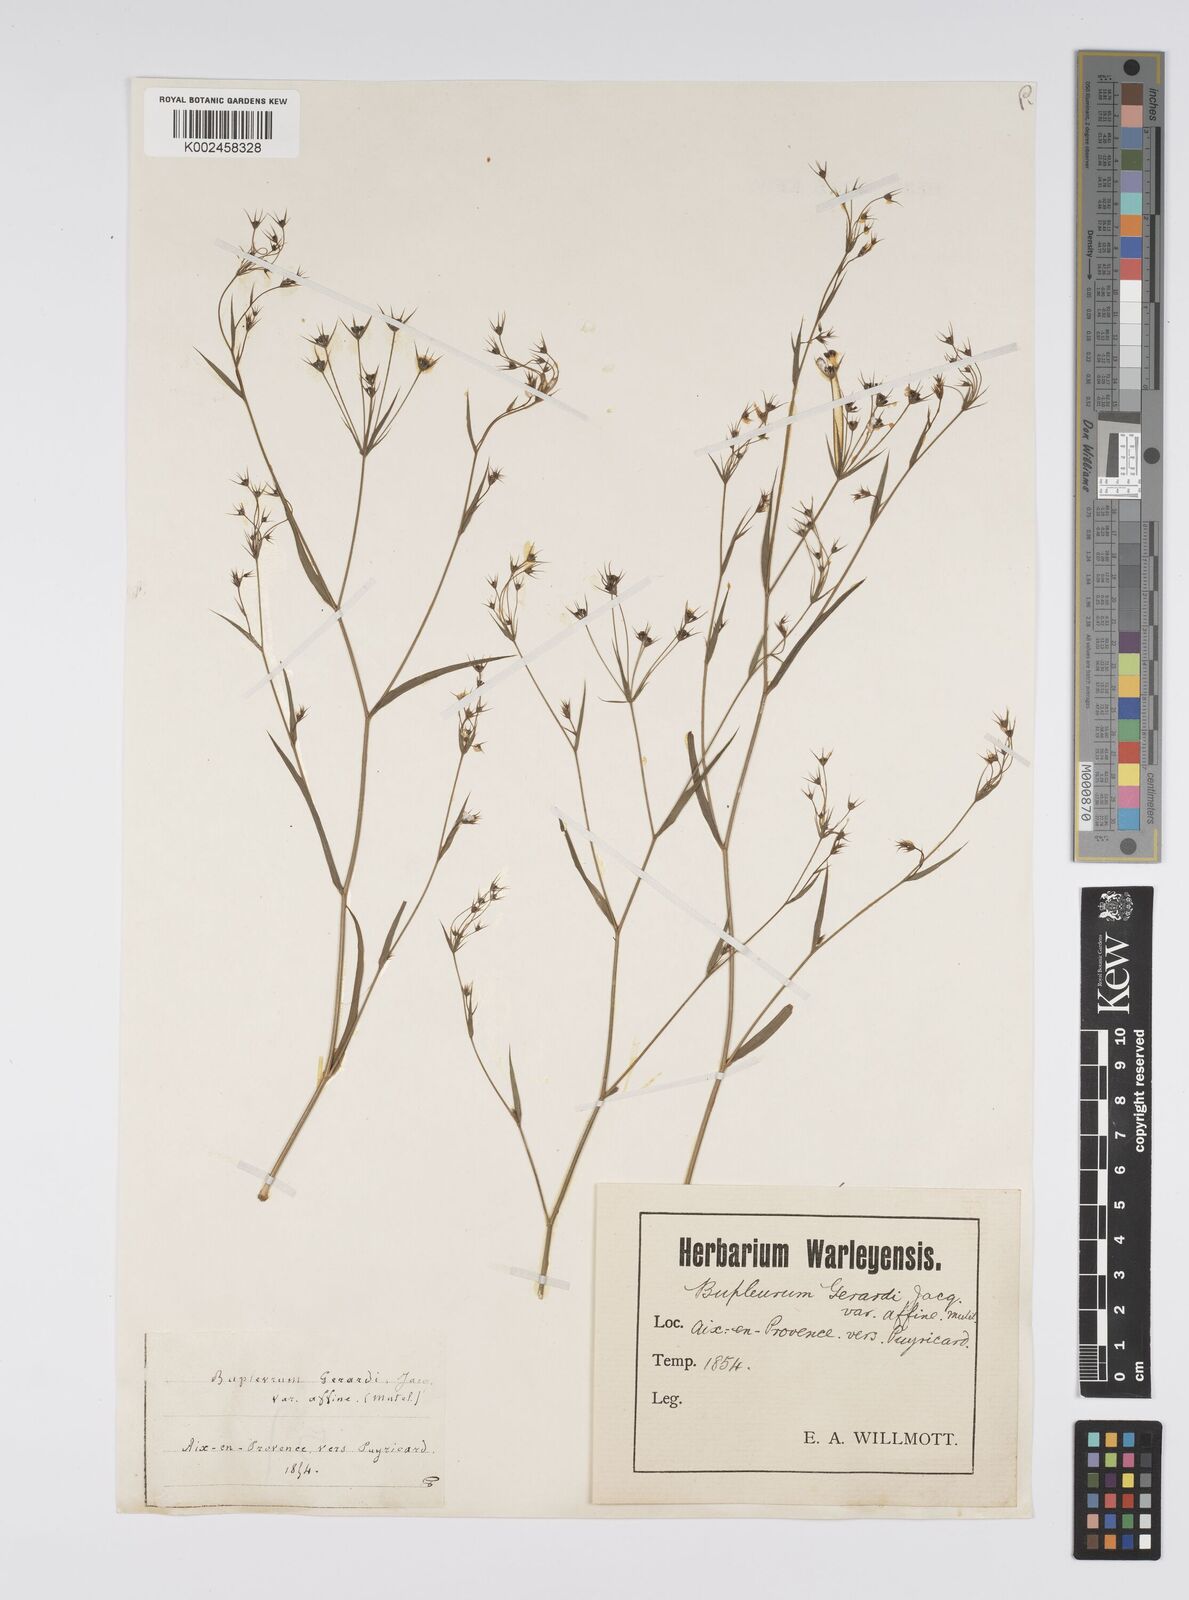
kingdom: Plantae
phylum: Tracheophyta
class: Magnoliopsida
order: Apiales
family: Apiaceae
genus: Bupleurum
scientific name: Bupleurum gerardi
